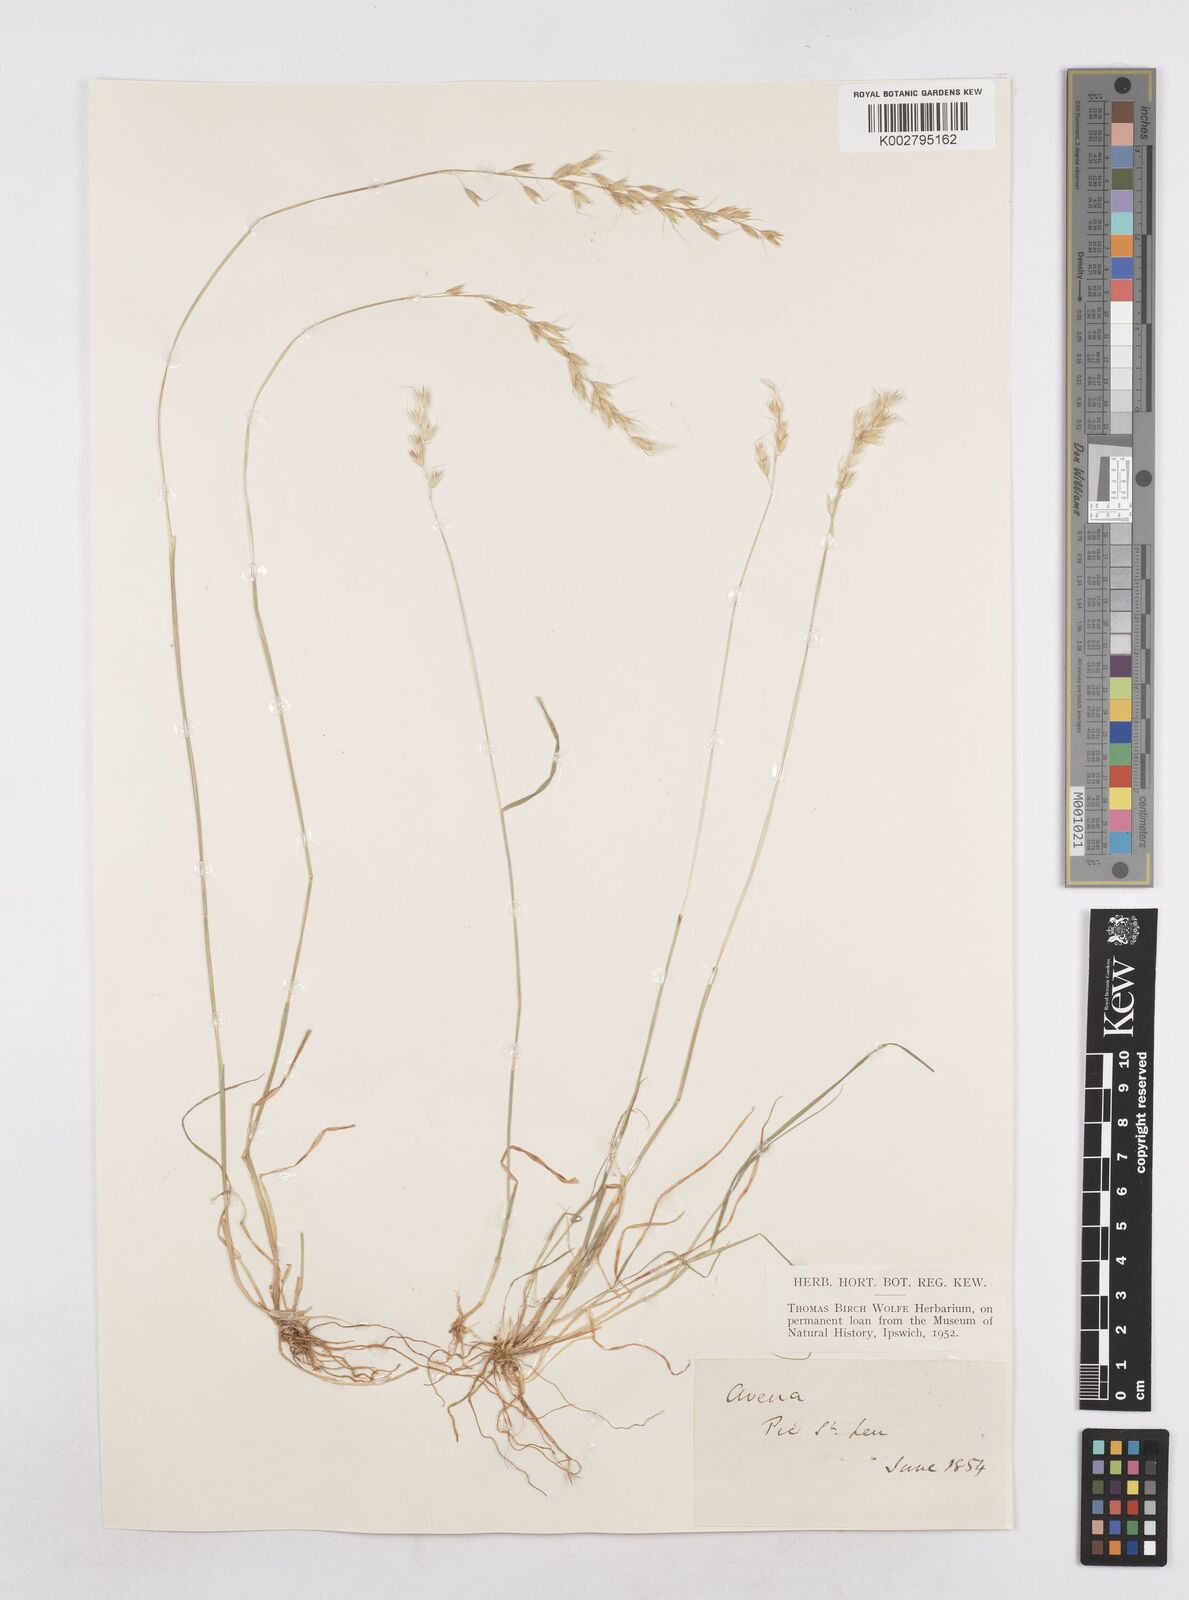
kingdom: Plantae
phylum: Tracheophyta
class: Liliopsida
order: Poales
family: Poaceae
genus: Helictochloa
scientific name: Helictochloa pratensis
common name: Meadow oat grass
